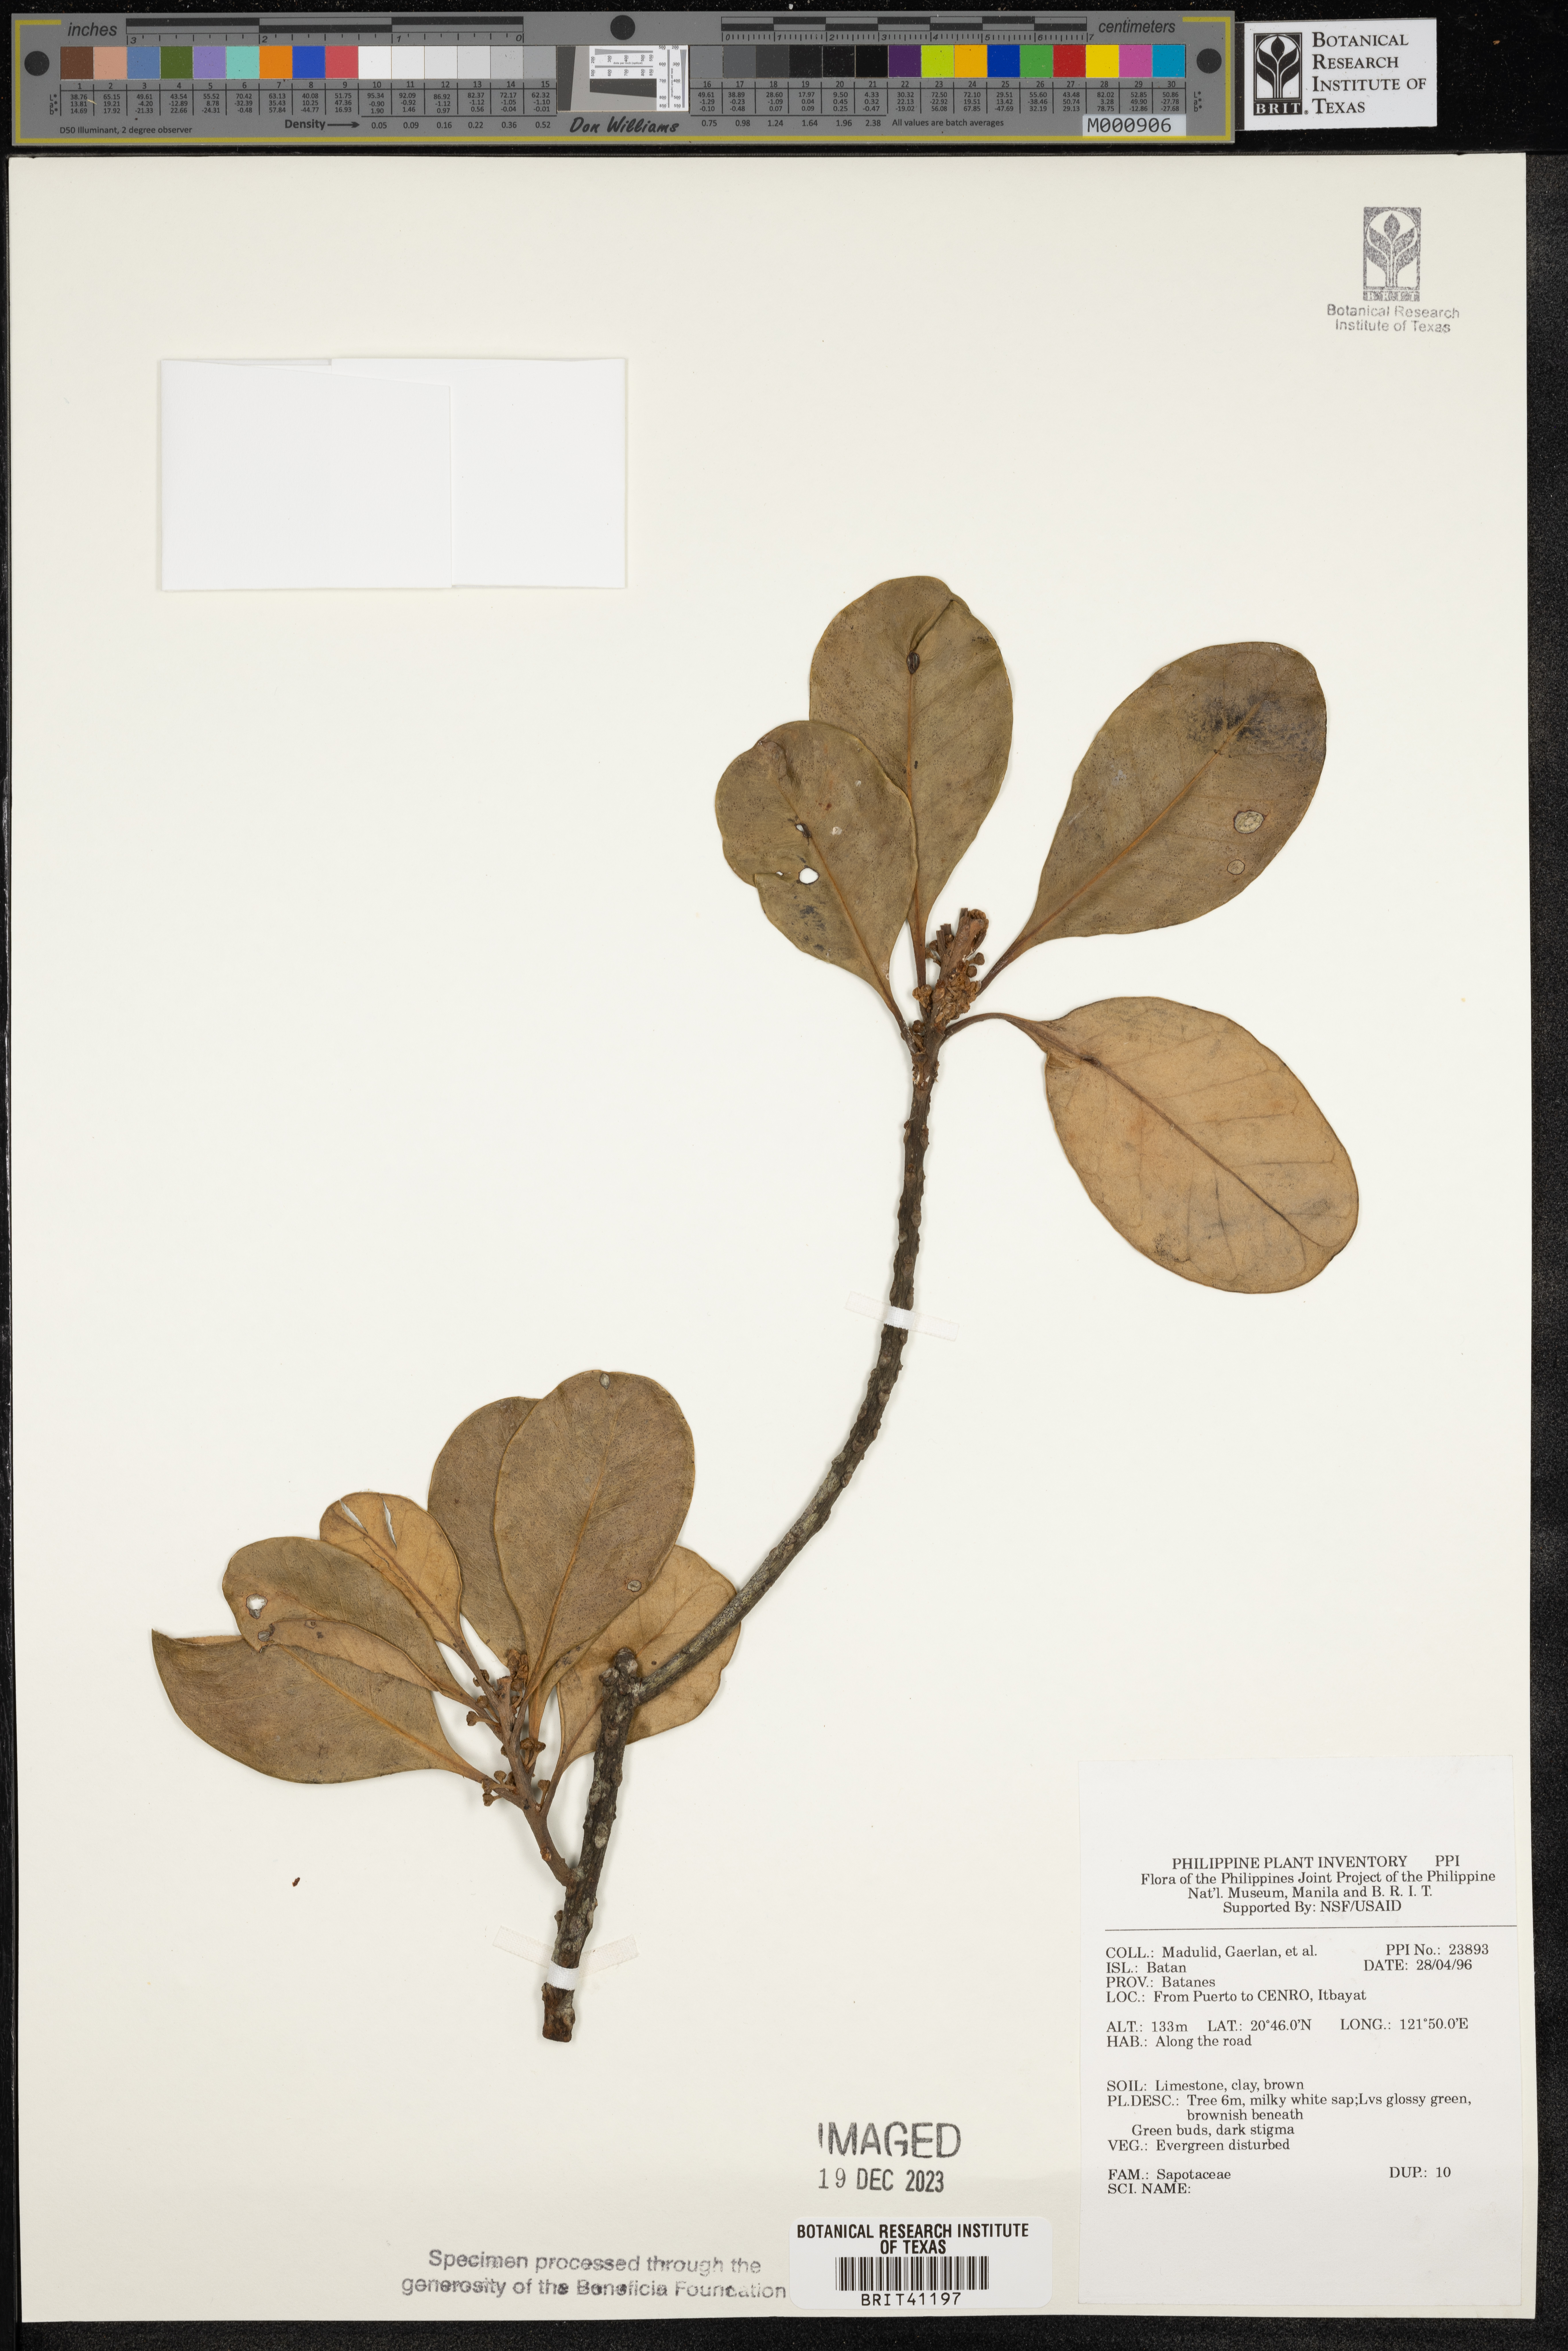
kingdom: Plantae
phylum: Tracheophyta
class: Magnoliopsida
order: Ericales
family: Sapotaceae
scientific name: Sapotaceae
